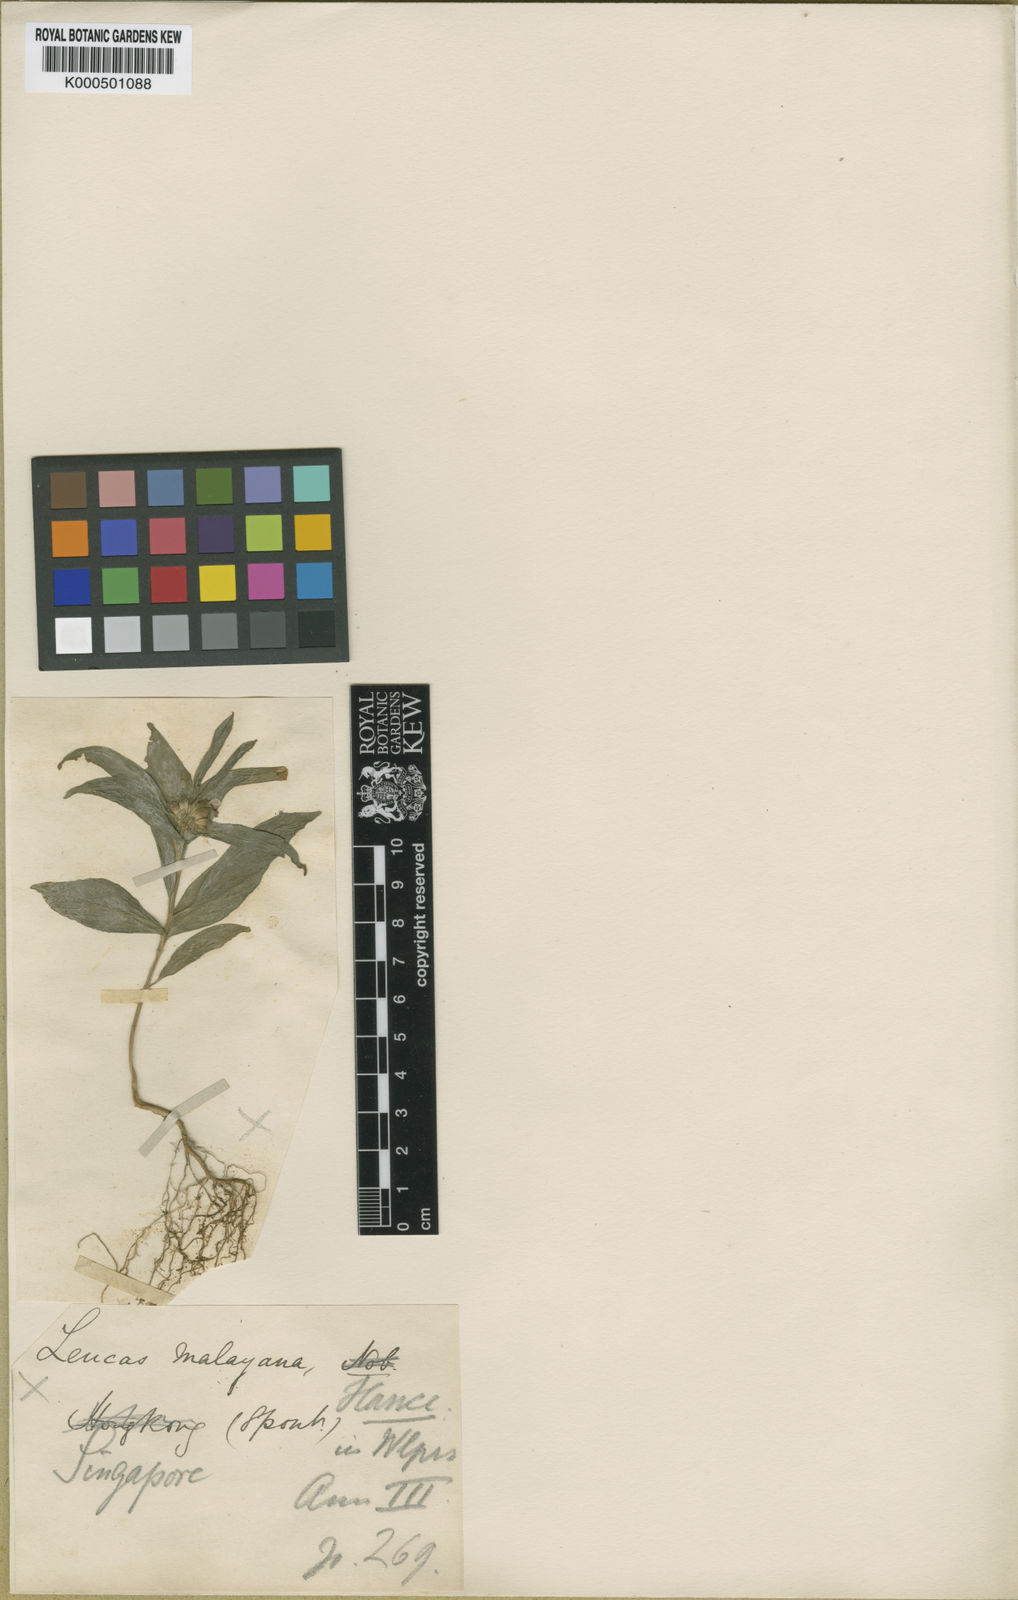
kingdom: Plantae
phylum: Tracheophyta
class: Magnoliopsida
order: Lamiales
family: Lamiaceae
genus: Leucas
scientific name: Leucas zeylanica
